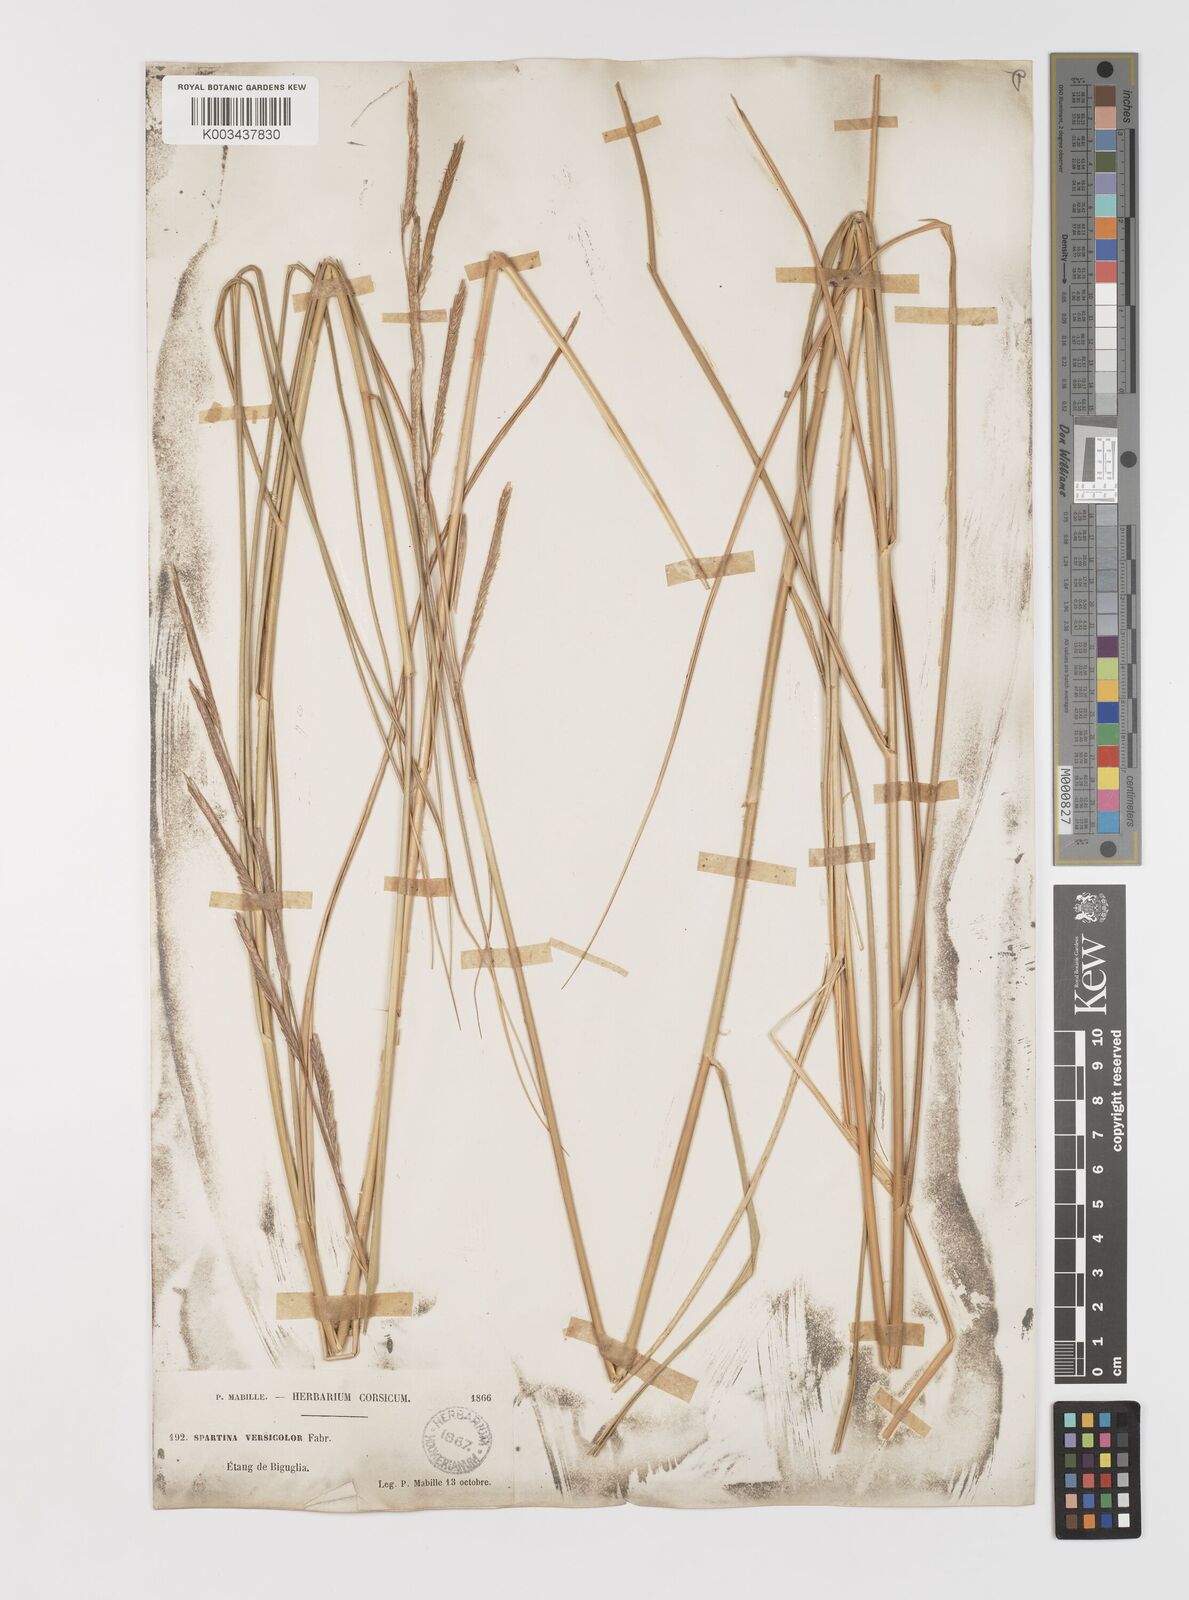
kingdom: Plantae
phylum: Tracheophyta
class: Liliopsida
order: Poales
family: Poaceae
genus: Sporobolus
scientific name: Sporobolus versicolor
